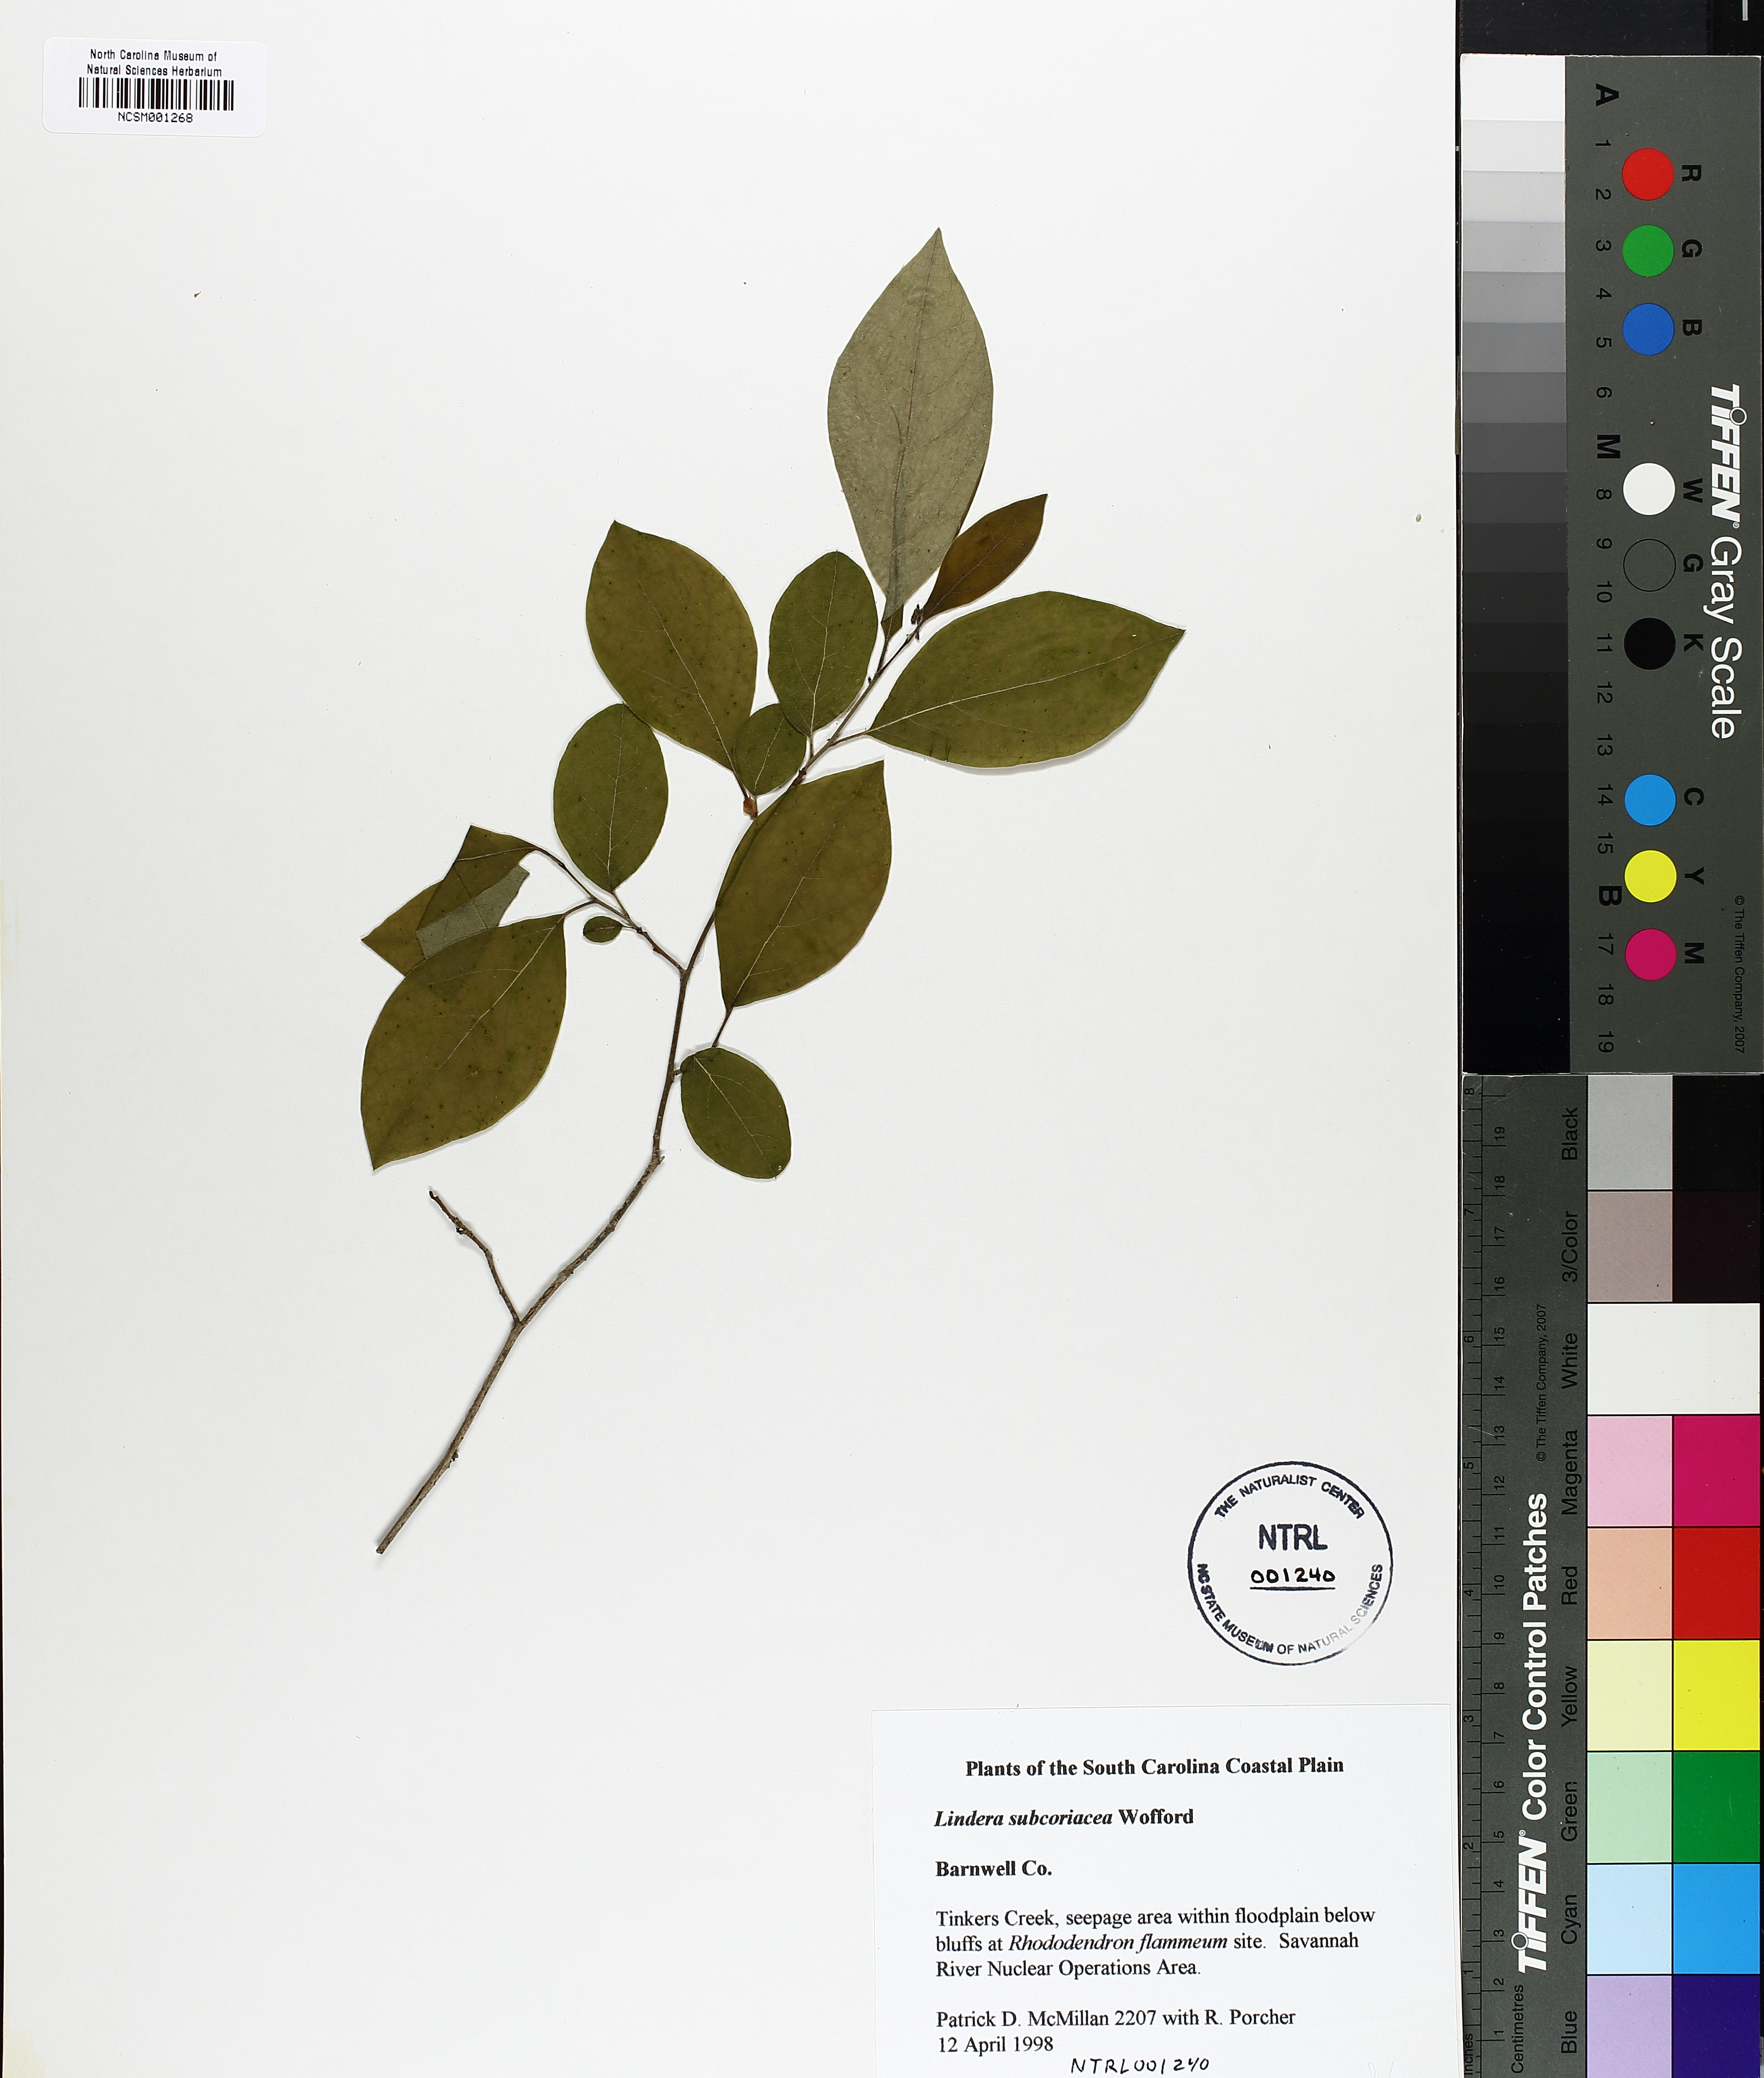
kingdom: Plantae
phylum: Tracheophyta
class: Magnoliopsida
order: Laurales
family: Lauraceae
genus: Lindera
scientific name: Lindera subcoriacea
